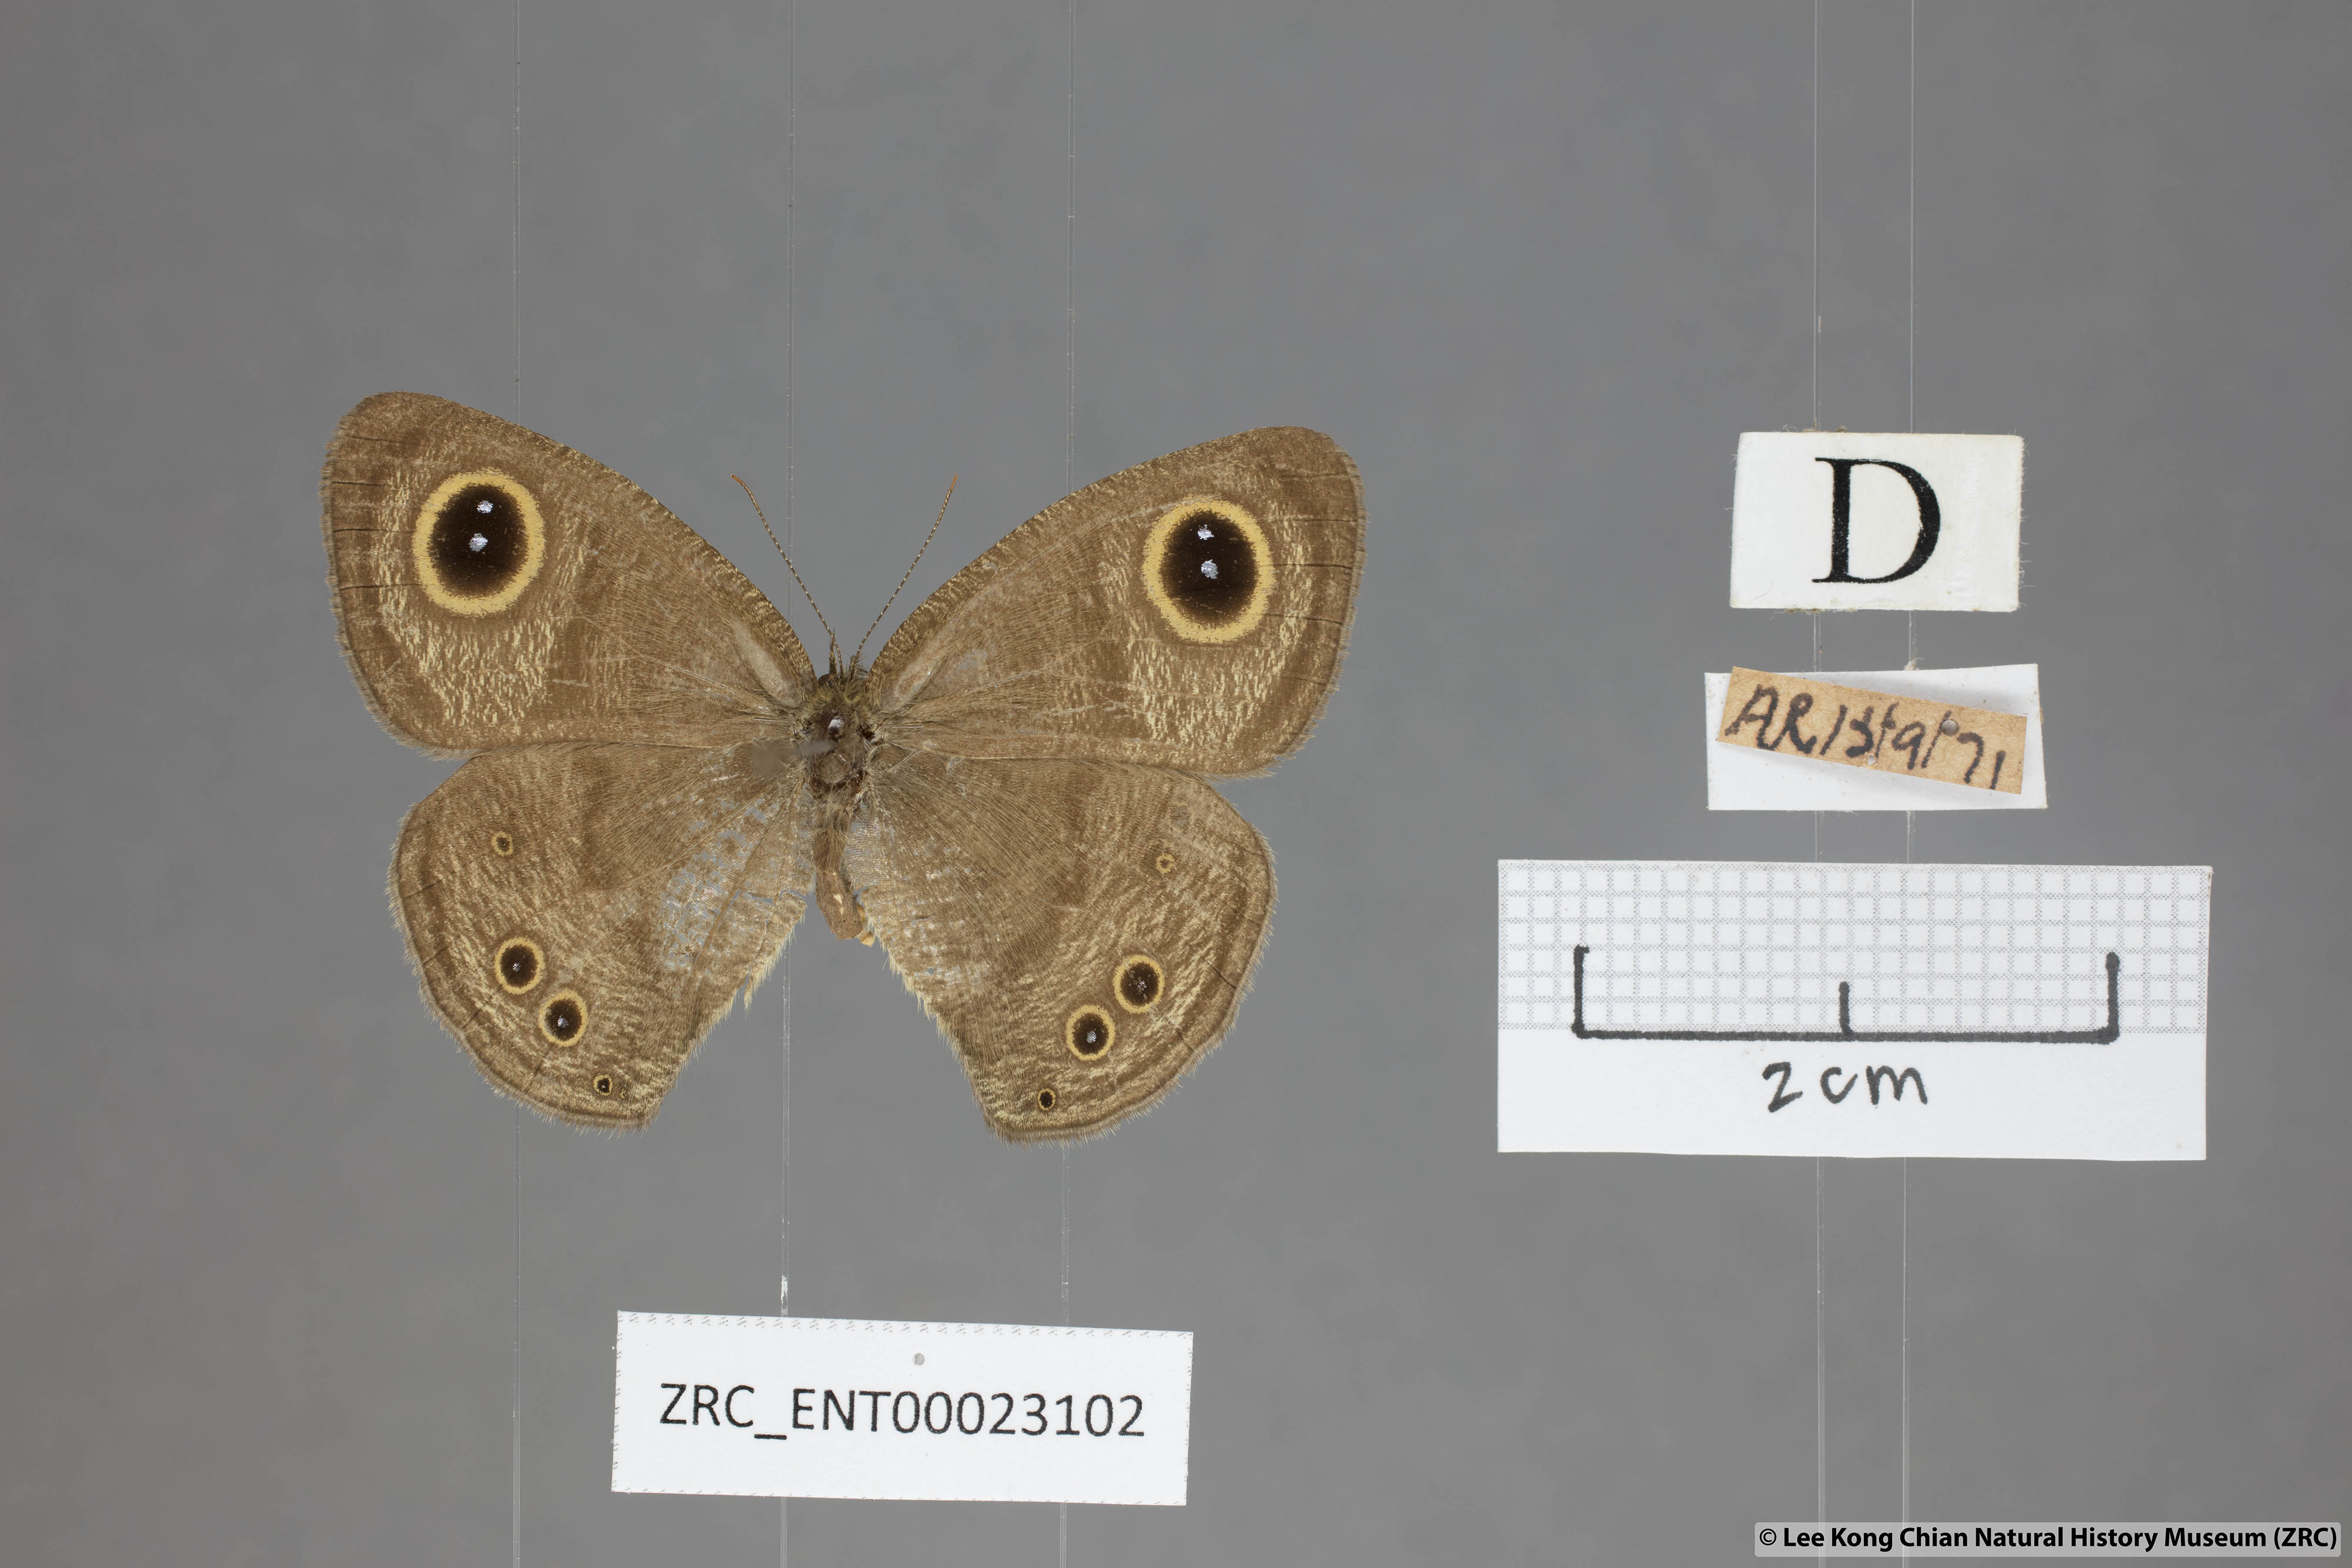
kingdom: Animalia
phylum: Arthropoda
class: Insecta
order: Lepidoptera
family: Nymphalidae
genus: Ypthima
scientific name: Ypthima baldus
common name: Common five-ring
